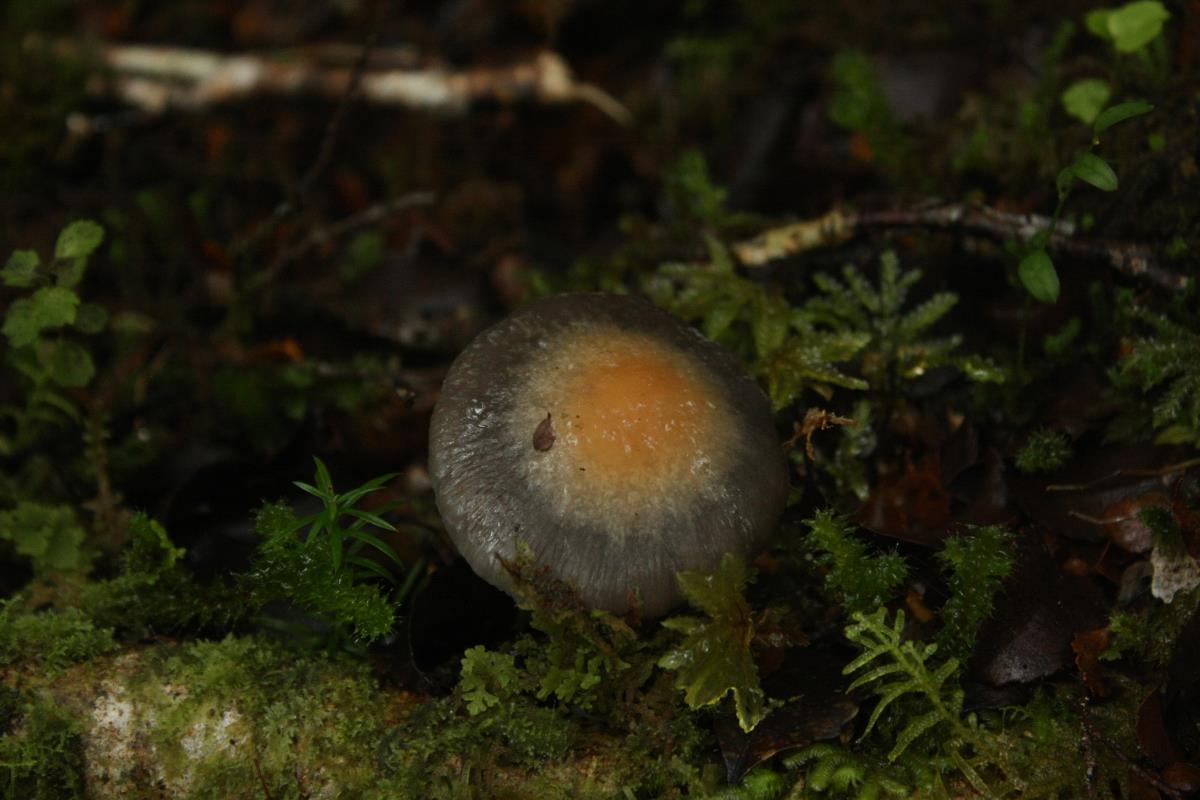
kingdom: Fungi
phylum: Basidiomycota
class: Agaricomycetes
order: Agaricales
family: Cortinariaceae
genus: Cortinarius
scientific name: Cortinarius pselioticton
